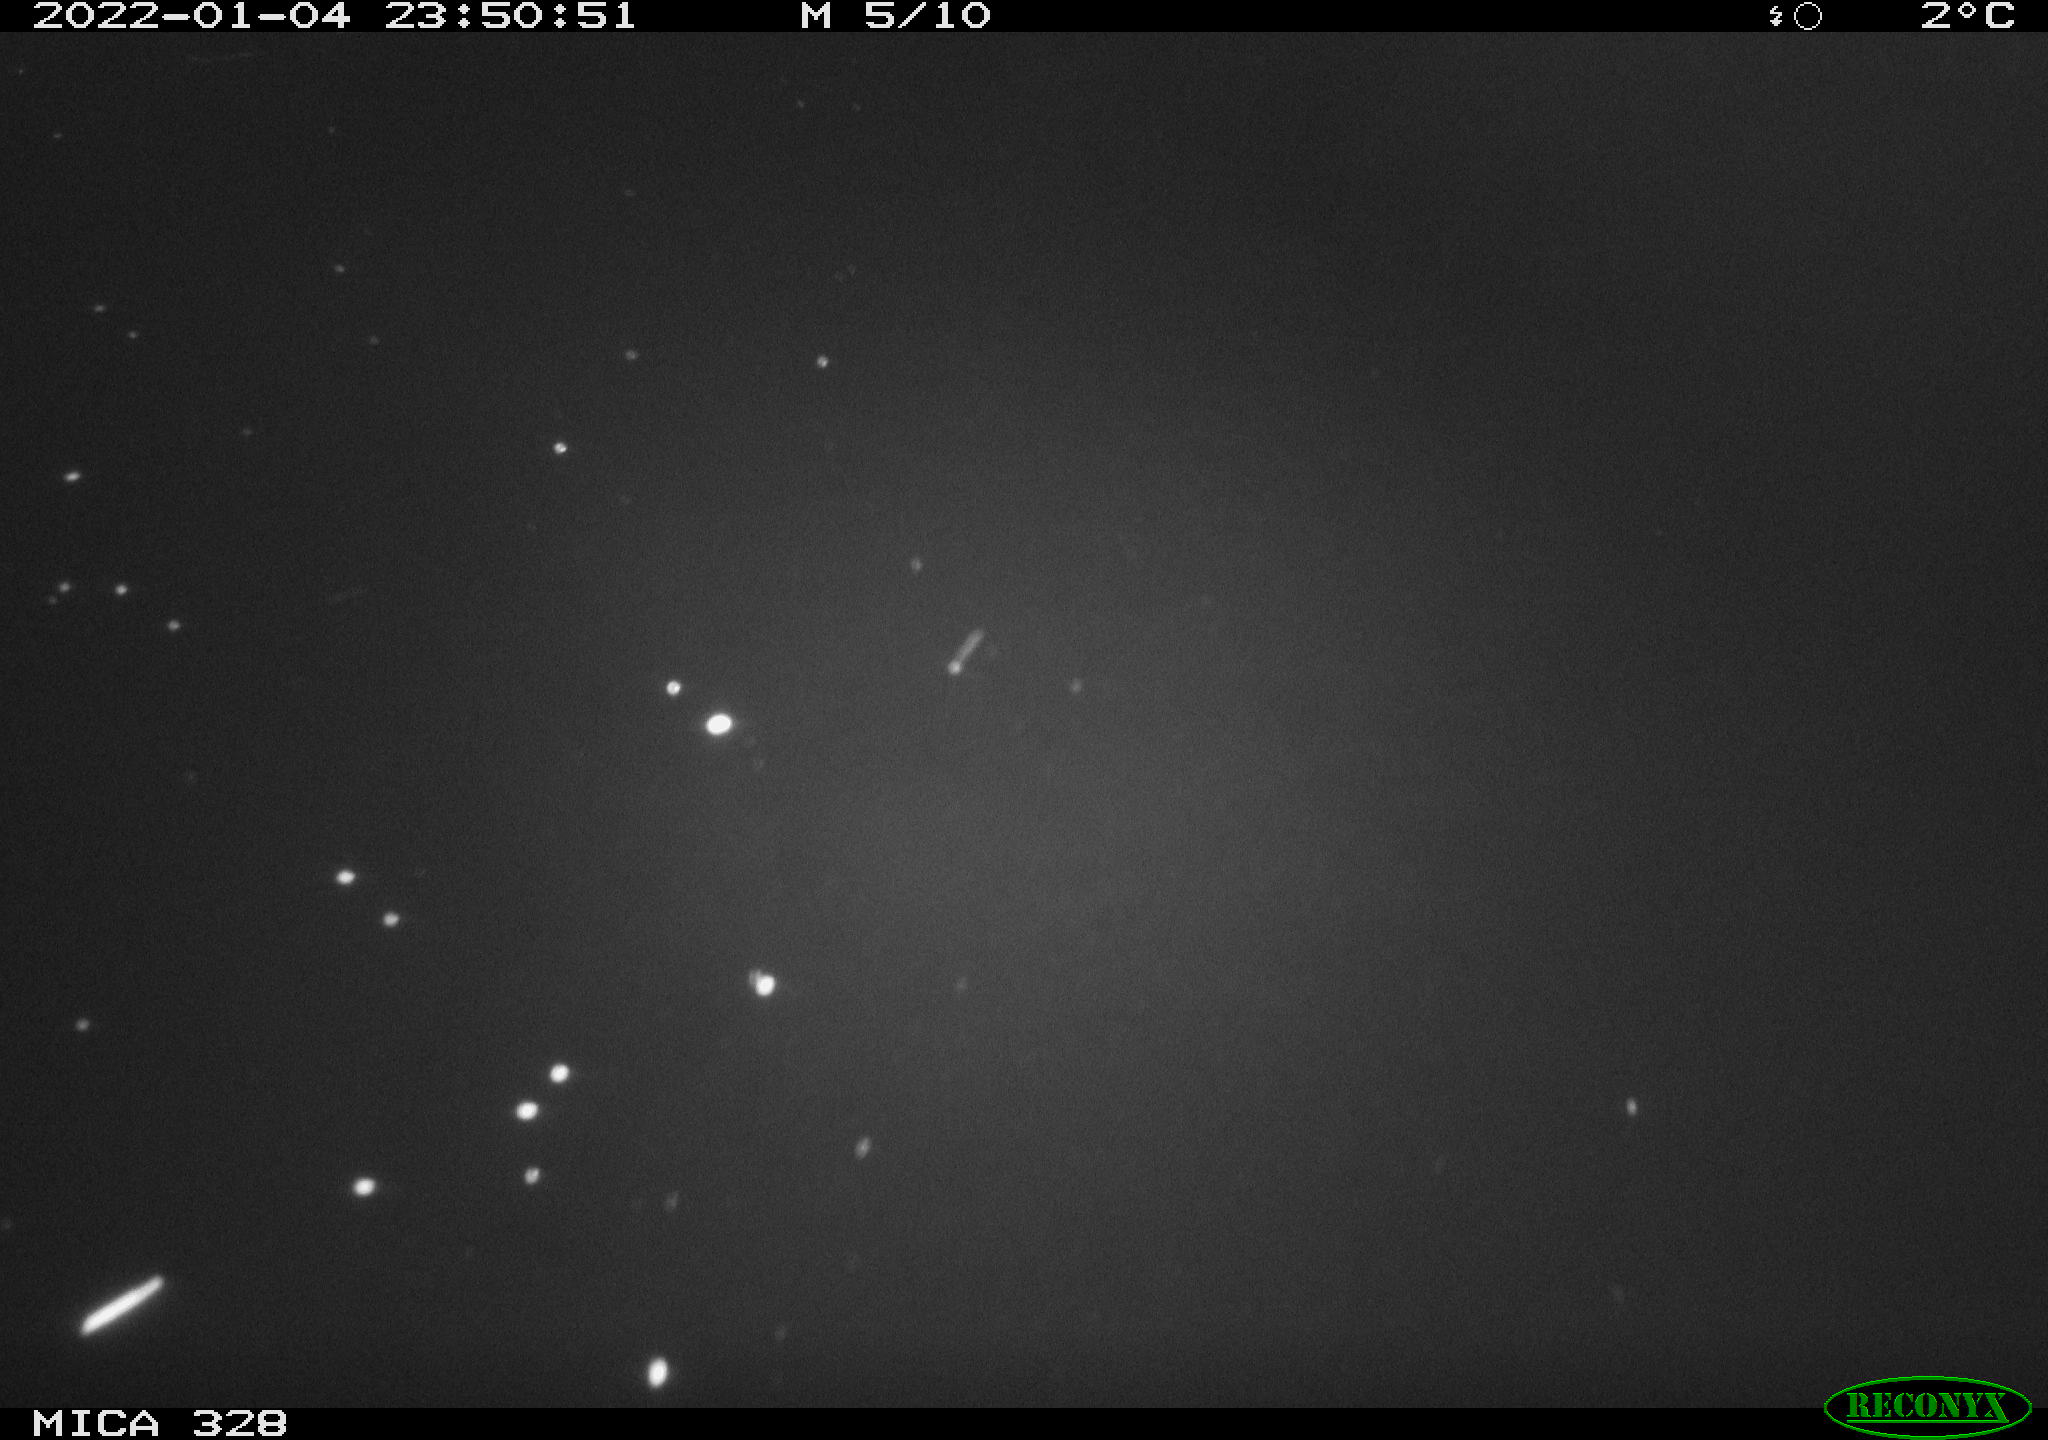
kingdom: Animalia
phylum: Chordata
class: Aves
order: Anseriformes
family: Anatidae
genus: Anas
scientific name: Anas platyrhynchos
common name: Mallard
